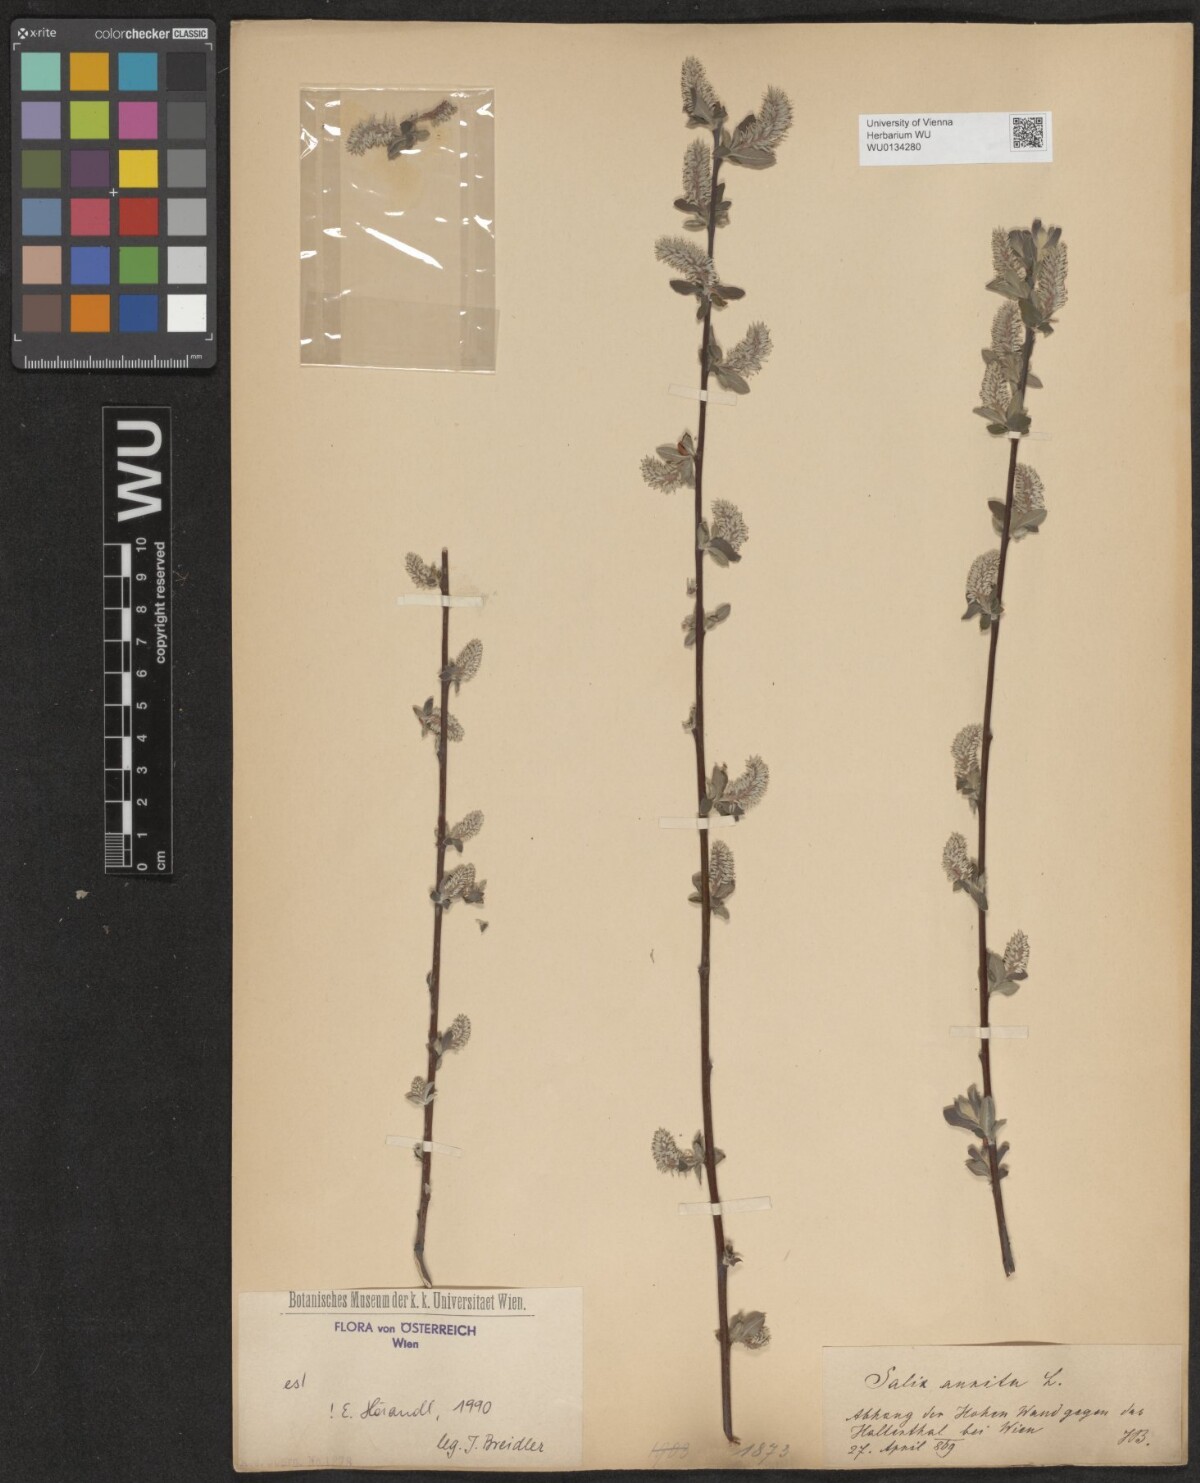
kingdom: Plantae
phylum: Tracheophyta
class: Magnoliopsida
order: Malpighiales
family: Salicaceae
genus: Salix
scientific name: Salix aurita
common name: Eared willow
